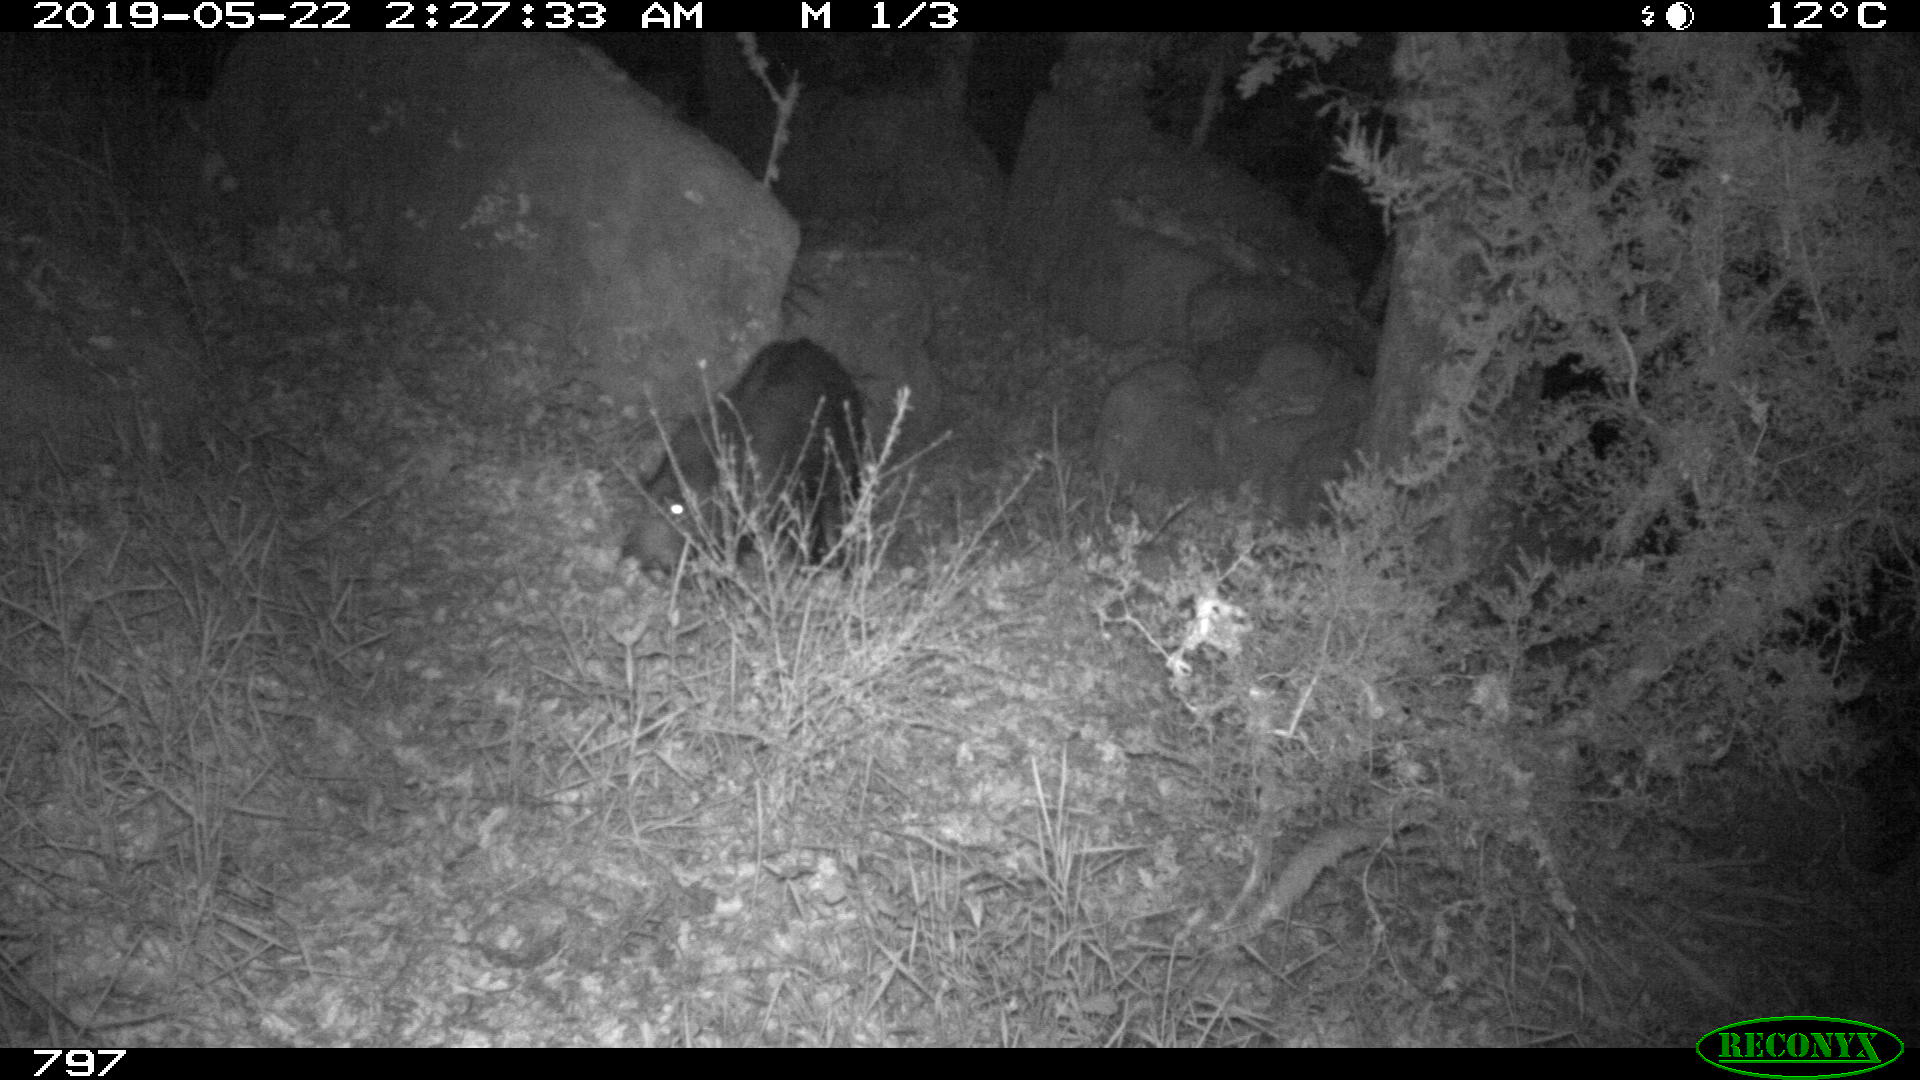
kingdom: Animalia
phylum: Chordata
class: Mammalia
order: Artiodactyla
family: Suidae
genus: Sus
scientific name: Sus scrofa
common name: Wild boar
